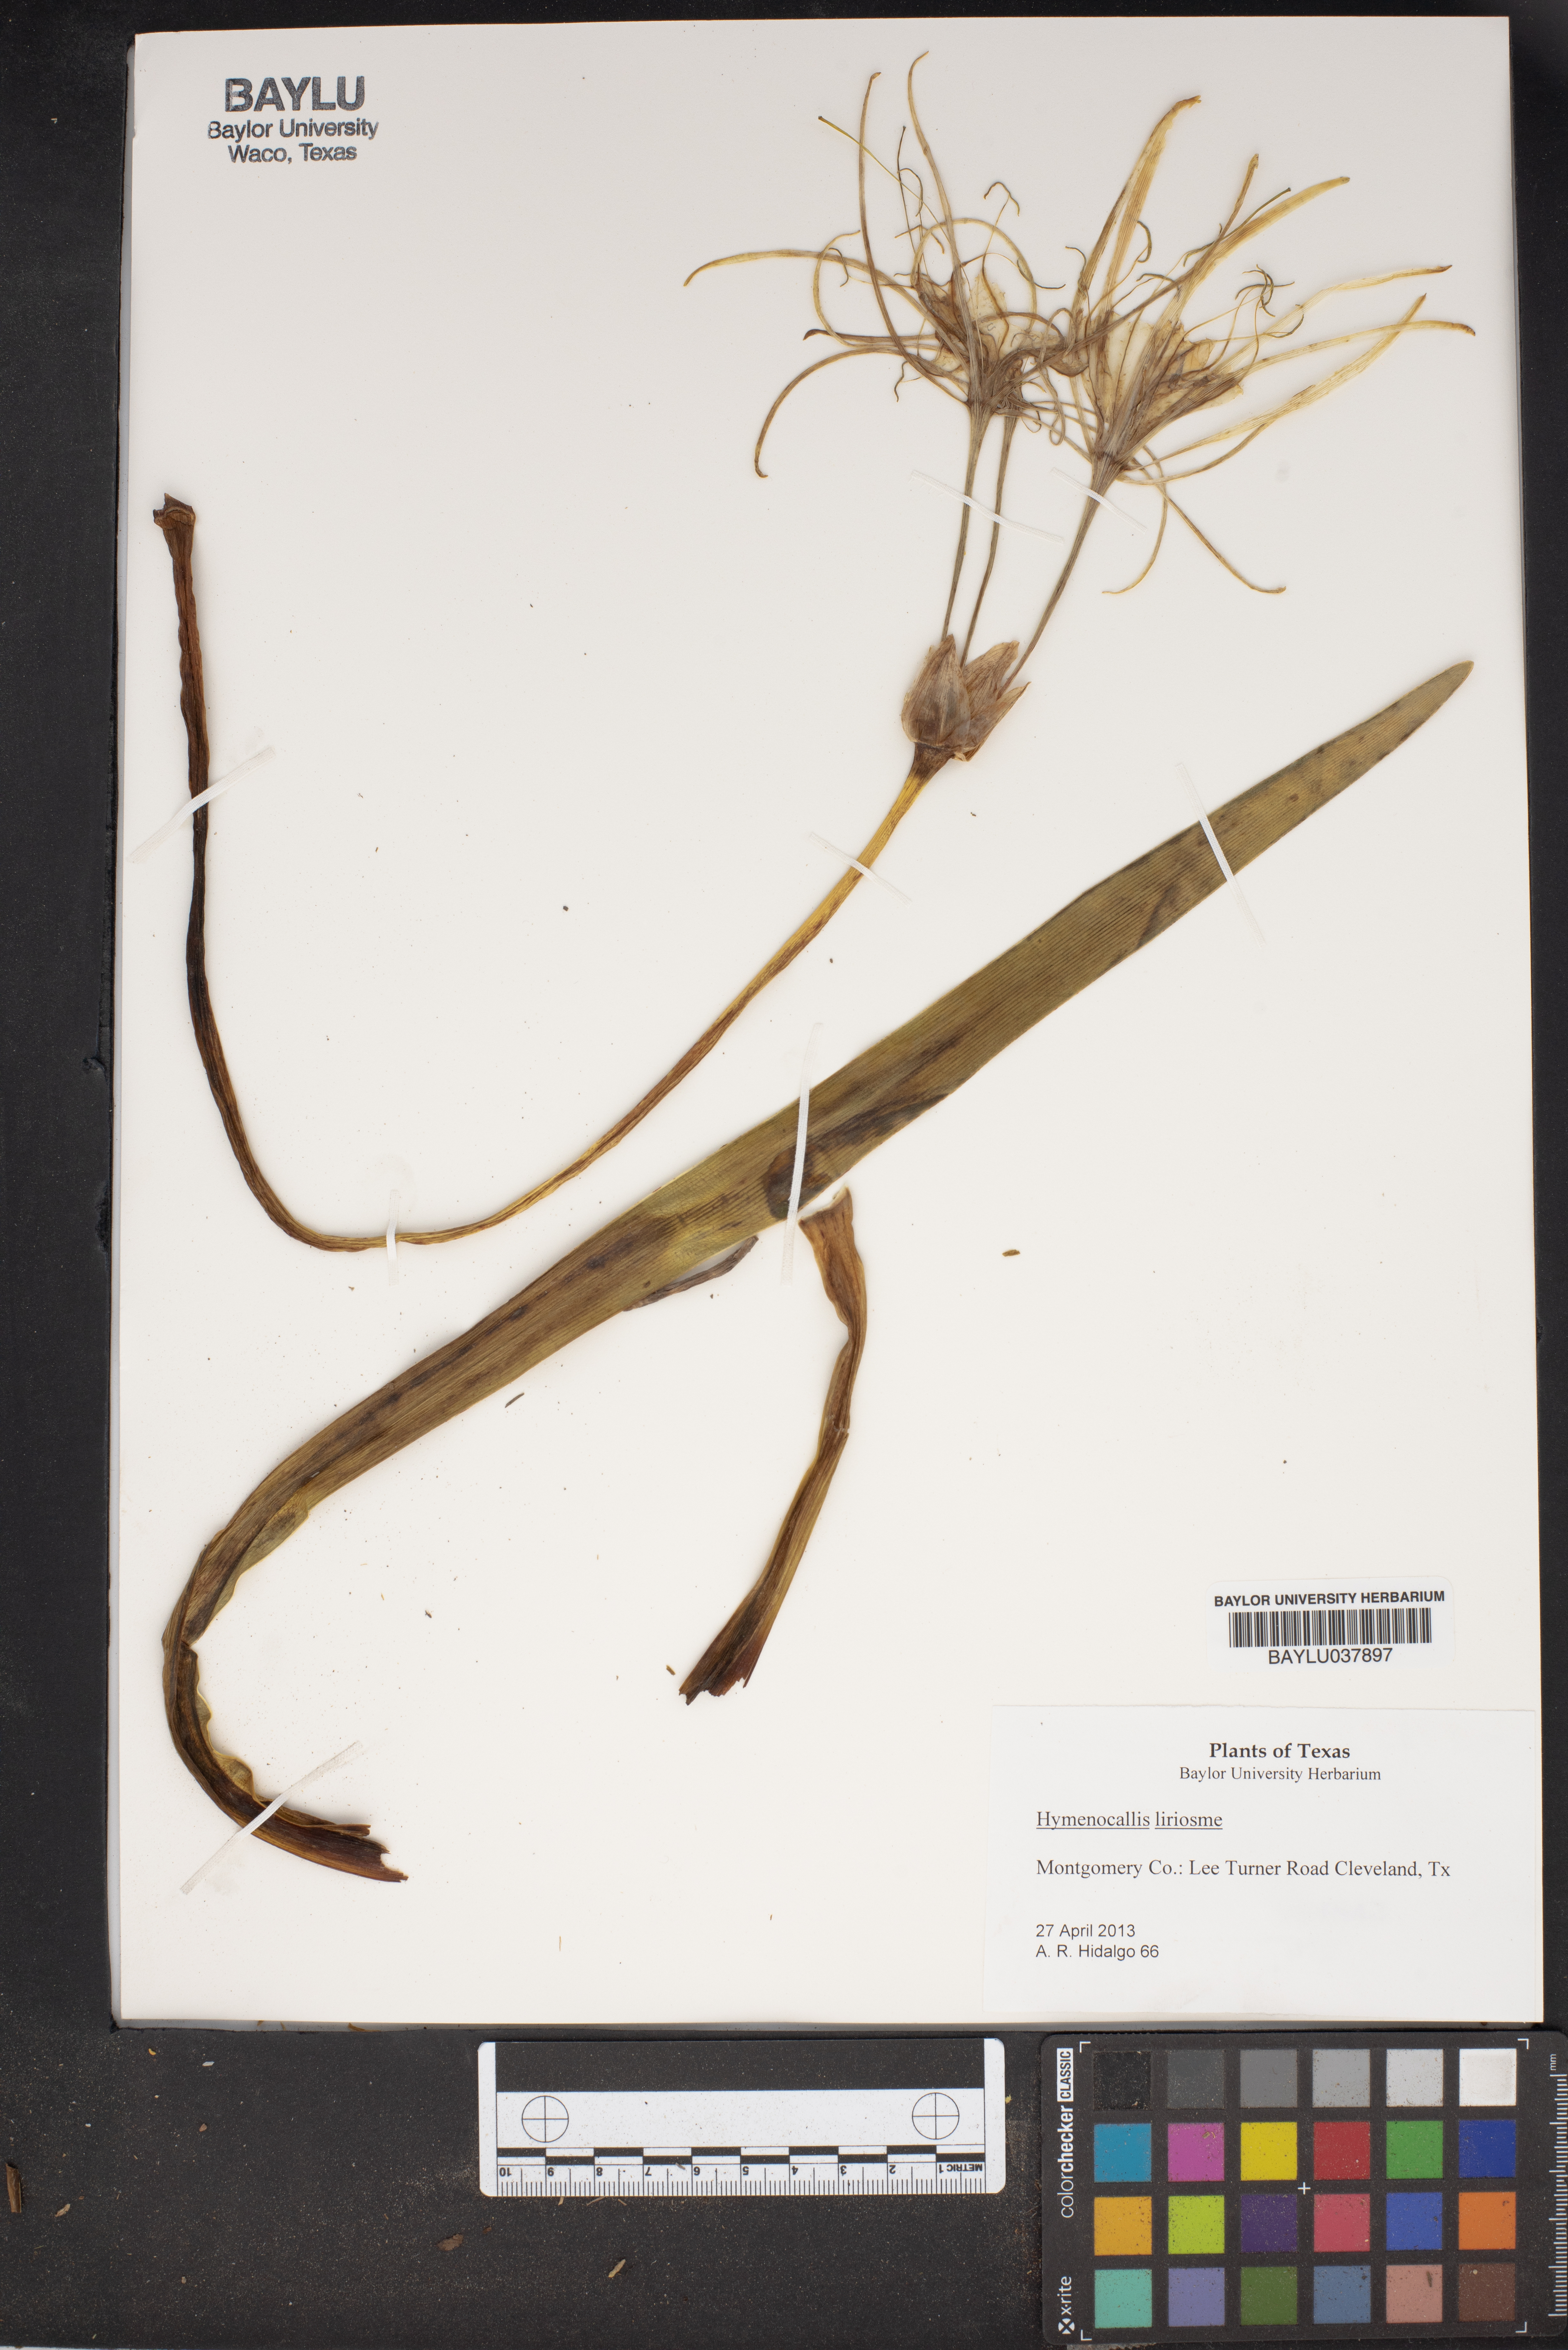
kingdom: Plantae
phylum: Tracheophyta
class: Liliopsida
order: Asparagales
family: Amaryllidaceae
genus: Hymenocallis
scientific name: Hymenocallis liriosme
